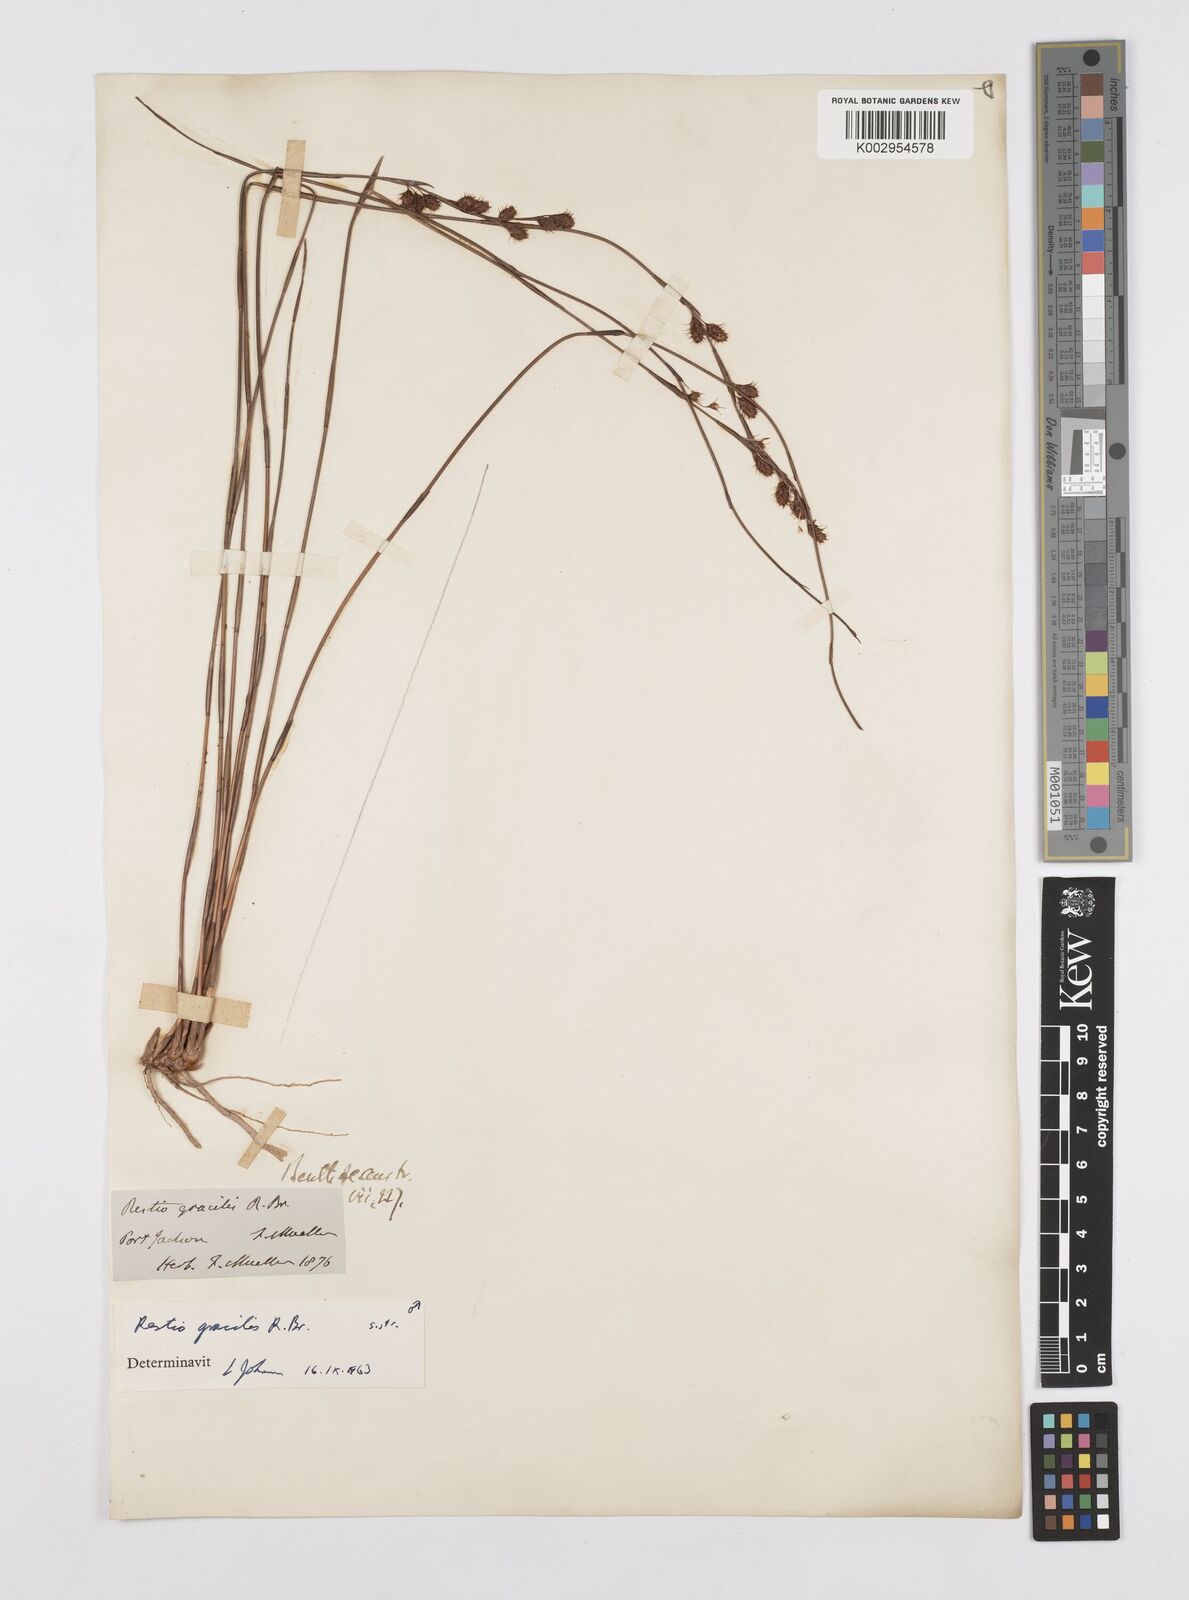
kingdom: Plantae
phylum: Tracheophyta
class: Liliopsida
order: Poales
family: Restionaceae
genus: Baloskion
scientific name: Baloskion gracile
